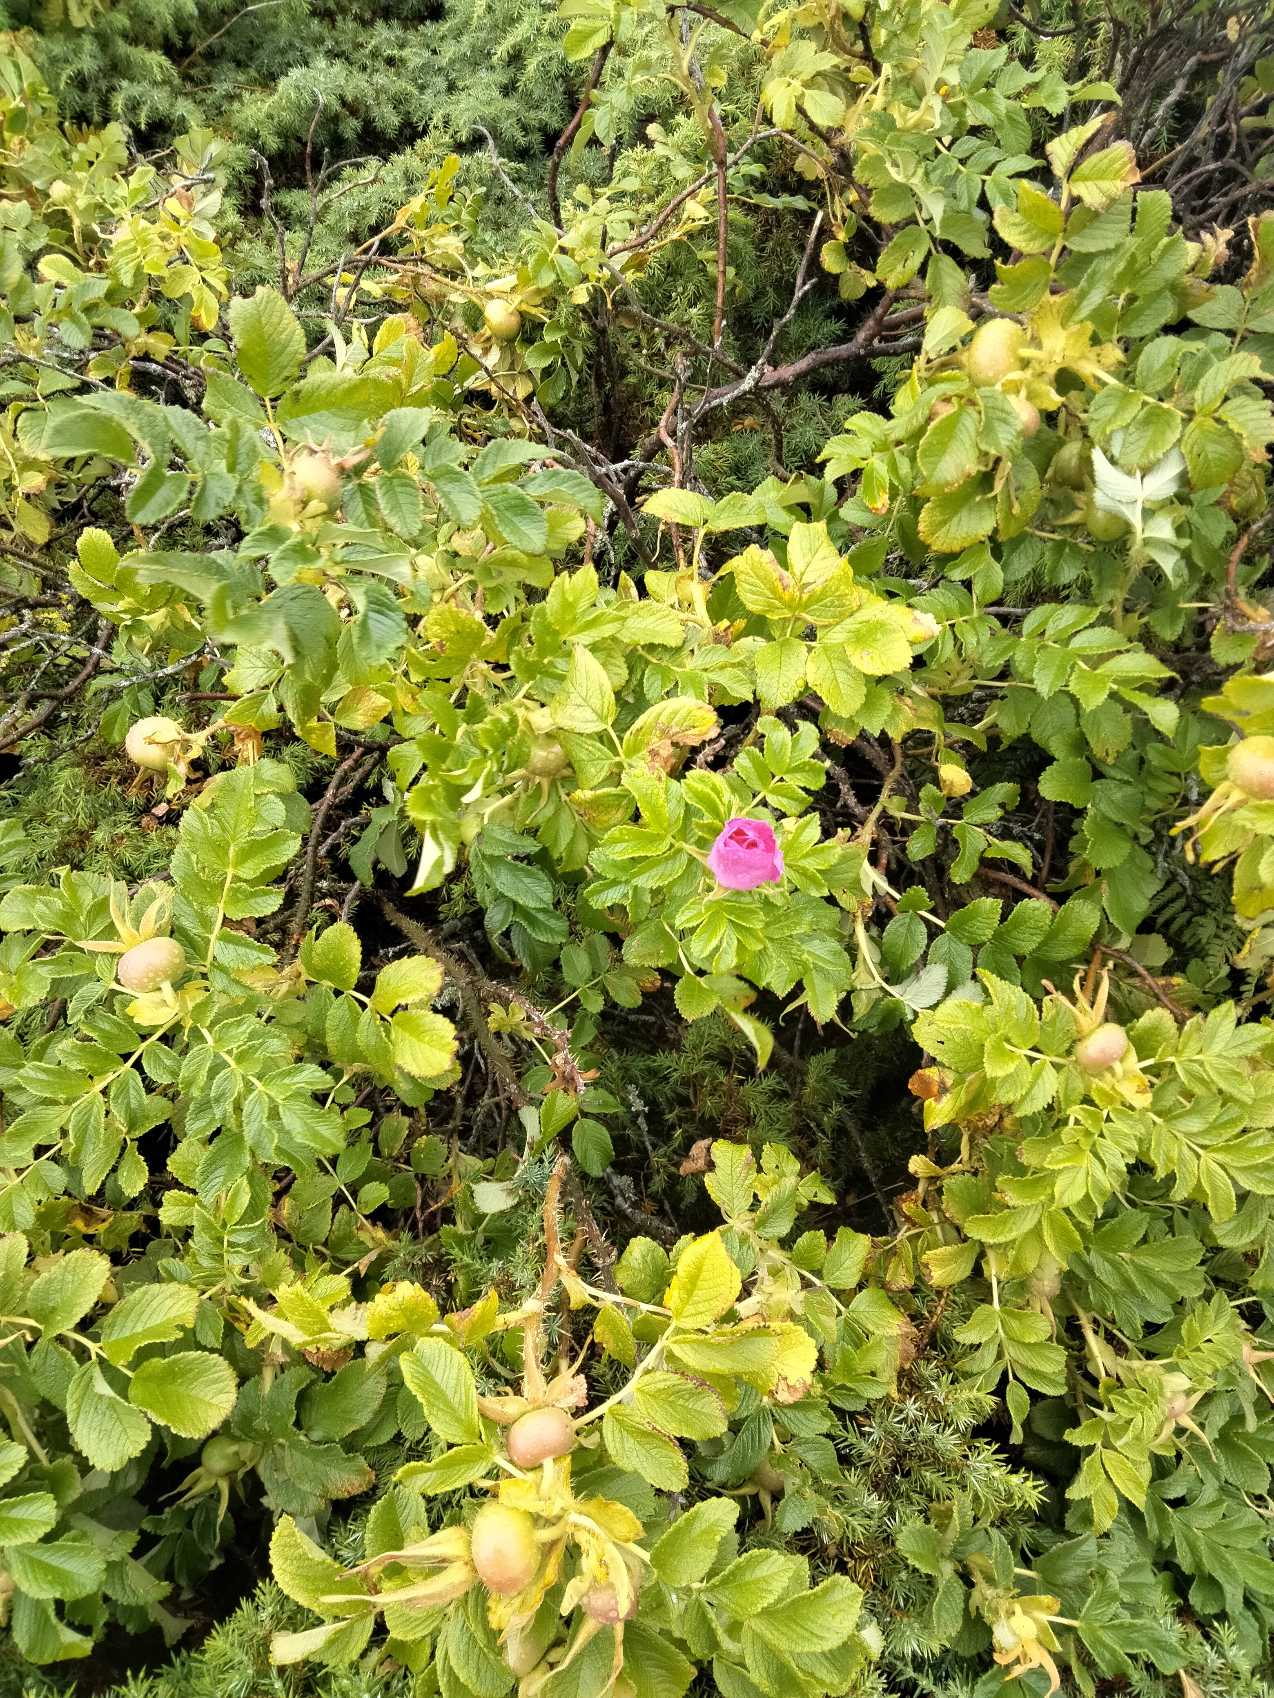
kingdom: Plantae
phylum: Tracheophyta
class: Magnoliopsida
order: Rosales
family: Rosaceae
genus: Rosa
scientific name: Rosa rugosa
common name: Rynket rose
